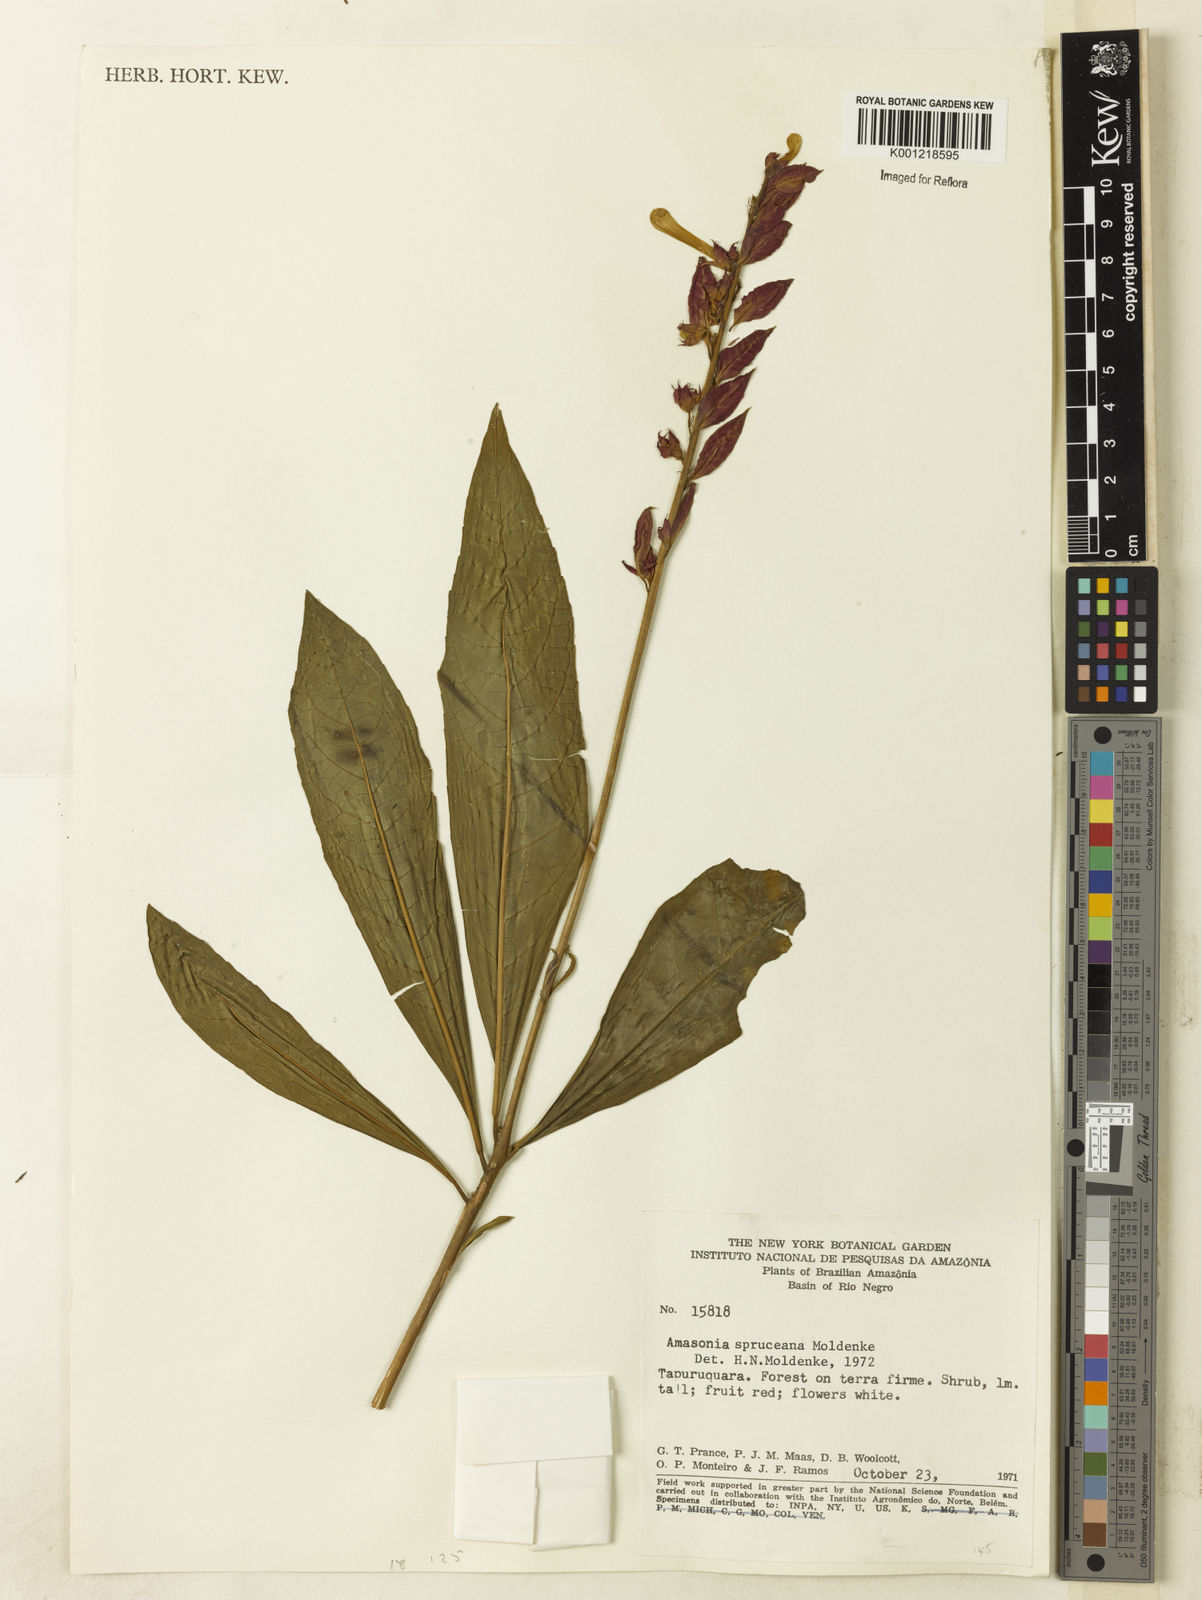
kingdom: Plantae
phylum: Tracheophyta
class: Magnoliopsida
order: Lamiales
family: Lamiaceae
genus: Amasonia
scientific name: Amasonia campestris
